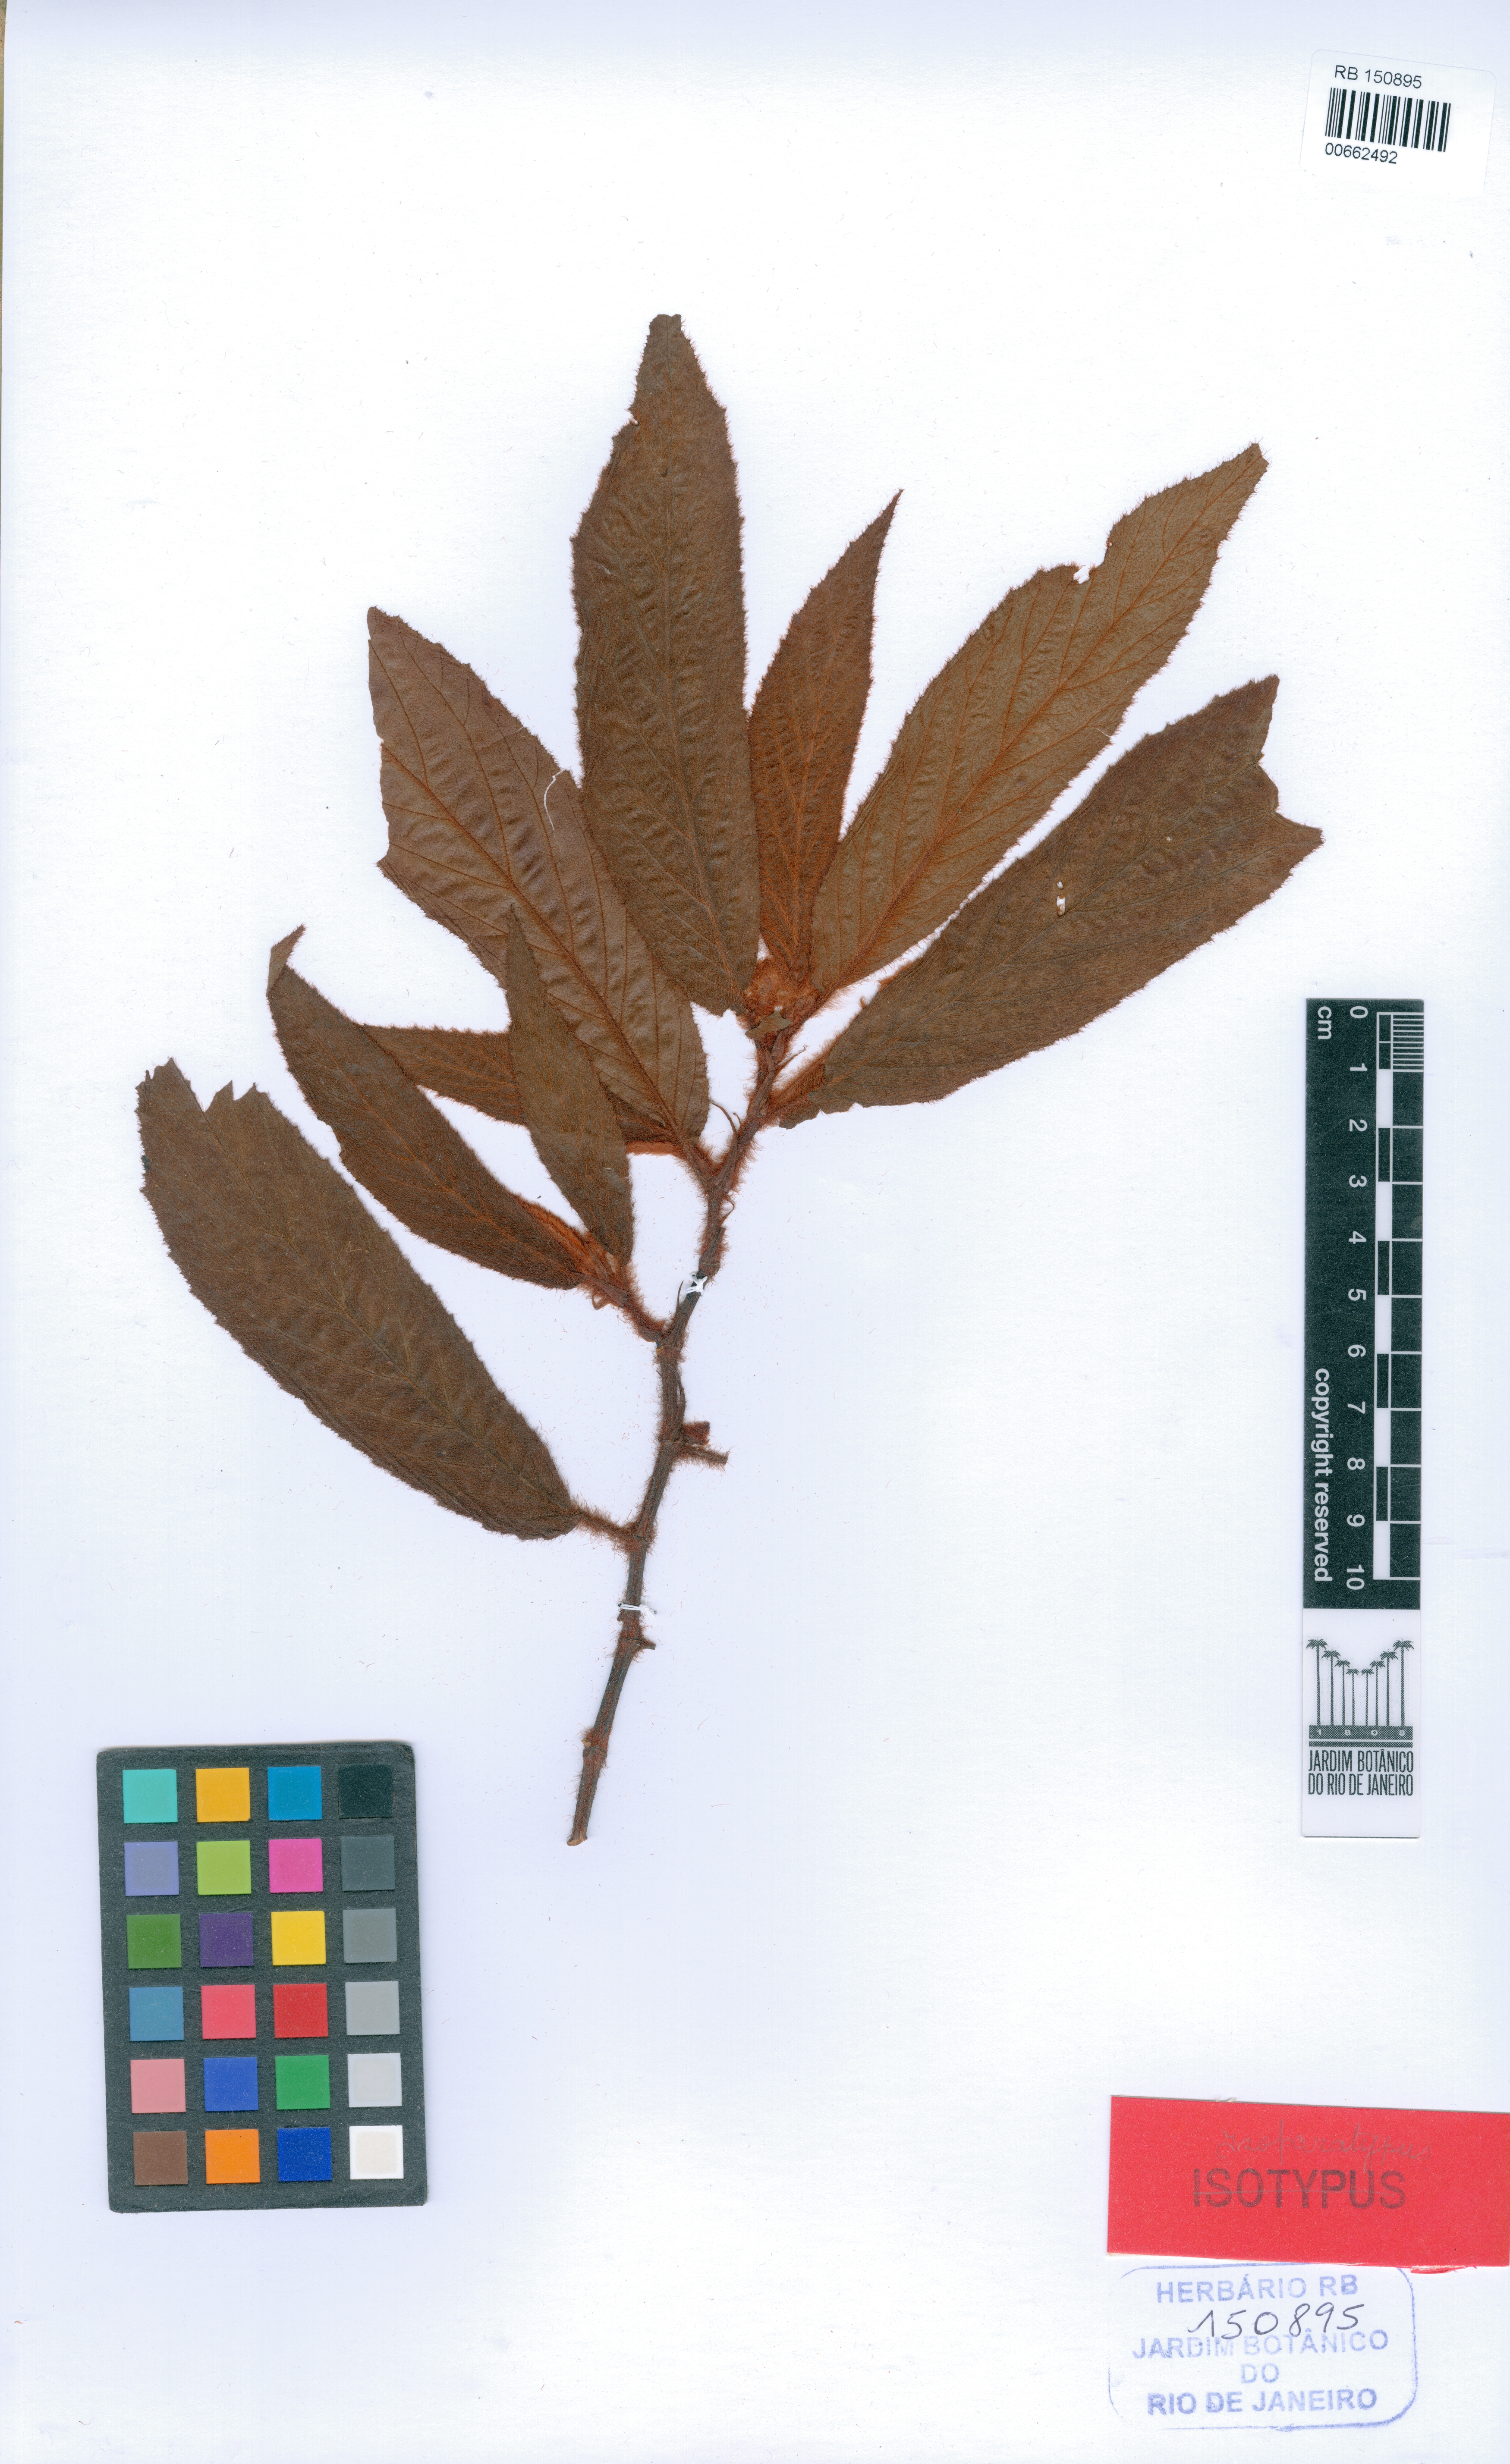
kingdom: Plantae
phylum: Tracheophyta
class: Magnoliopsida
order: Cucurbitales
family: Begoniaceae
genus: Begonia
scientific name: Begonia rufosericea
